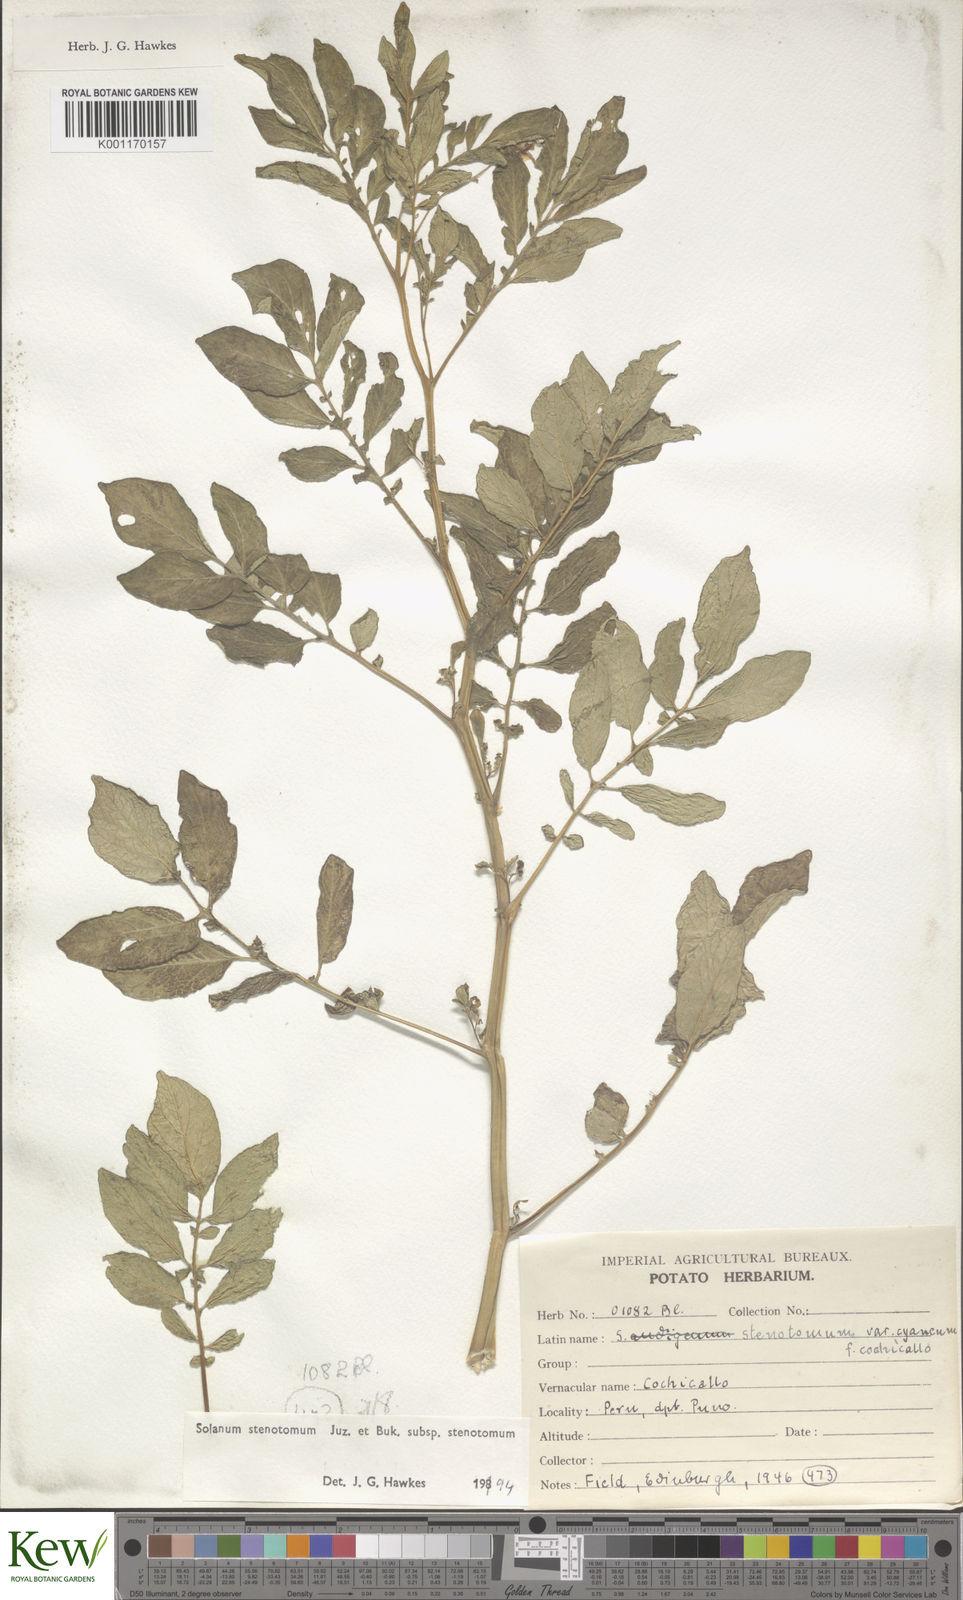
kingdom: Plantae
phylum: Tracheophyta
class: Magnoliopsida
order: Solanales
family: Solanaceae
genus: Solanum
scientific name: Solanum tuberosum
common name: Potato
